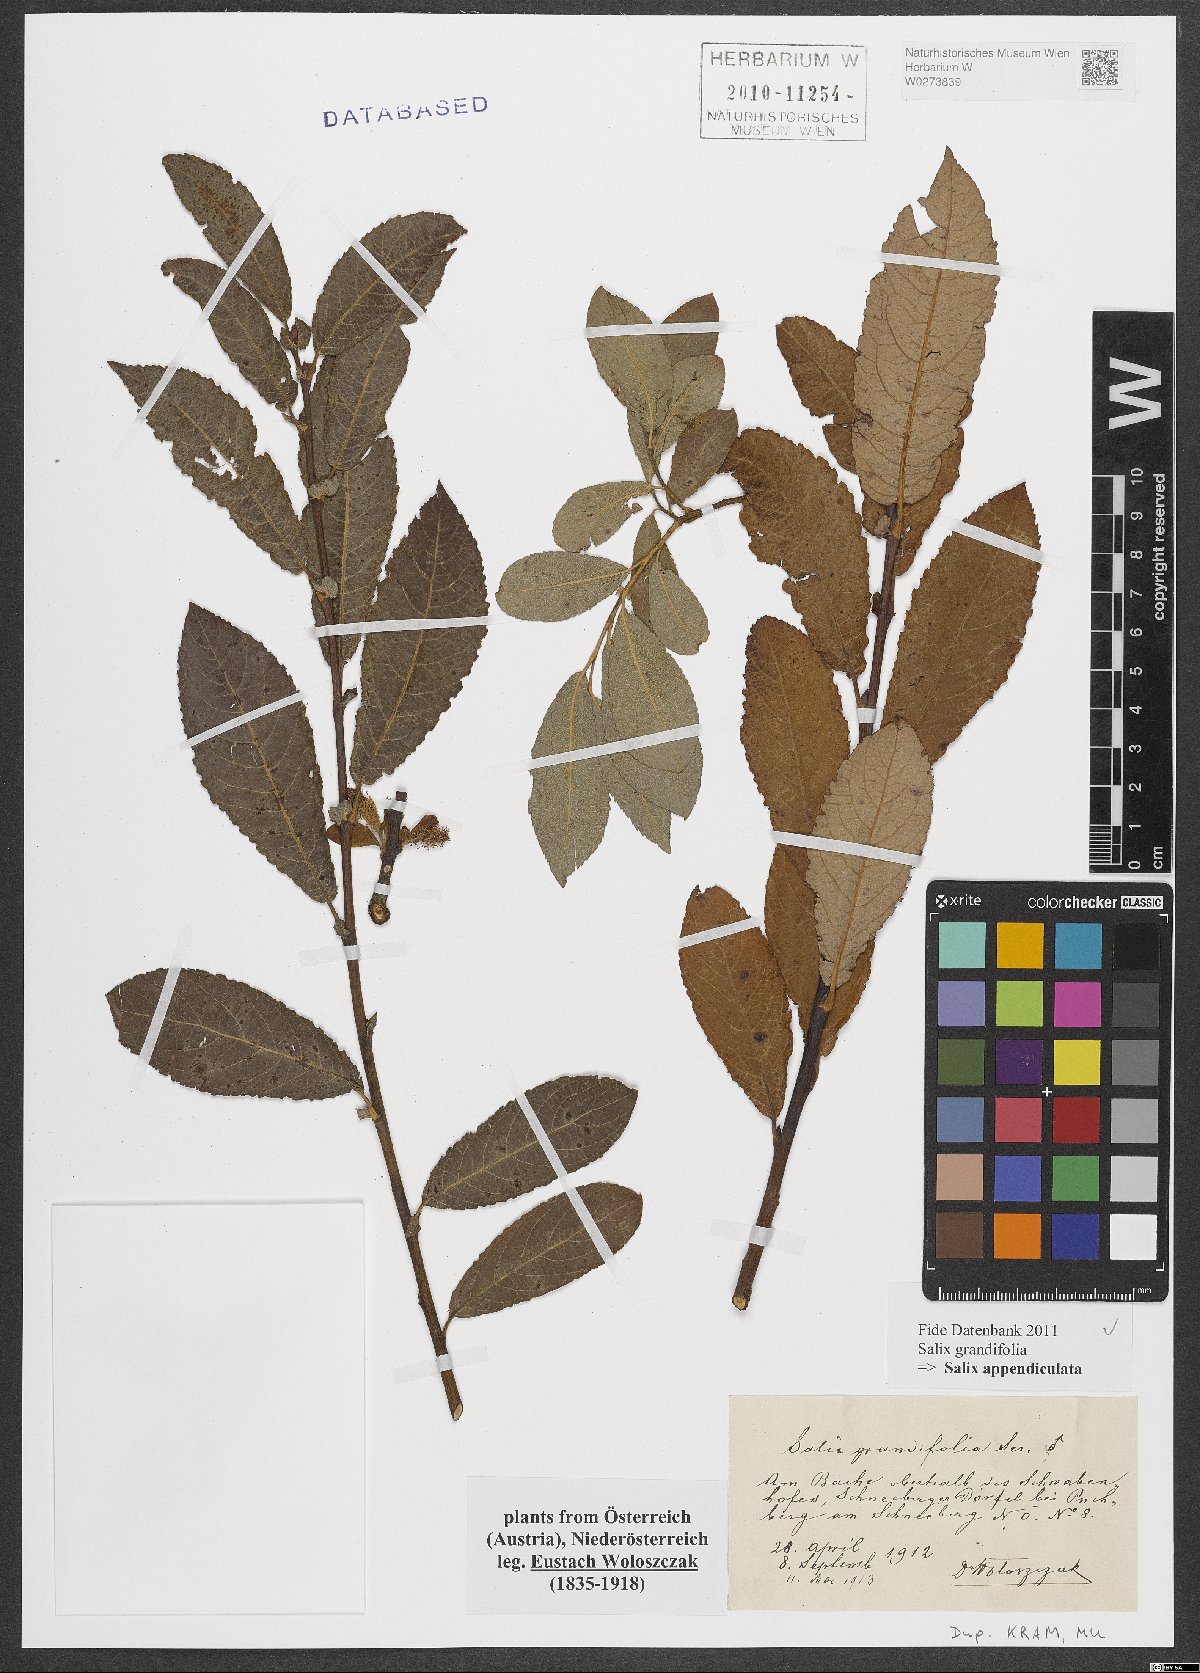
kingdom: Plantae
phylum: Tracheophyta
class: Magnoliopsida
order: Malpighiales
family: Salicaceae
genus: Salix
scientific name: Salix appendiculata
